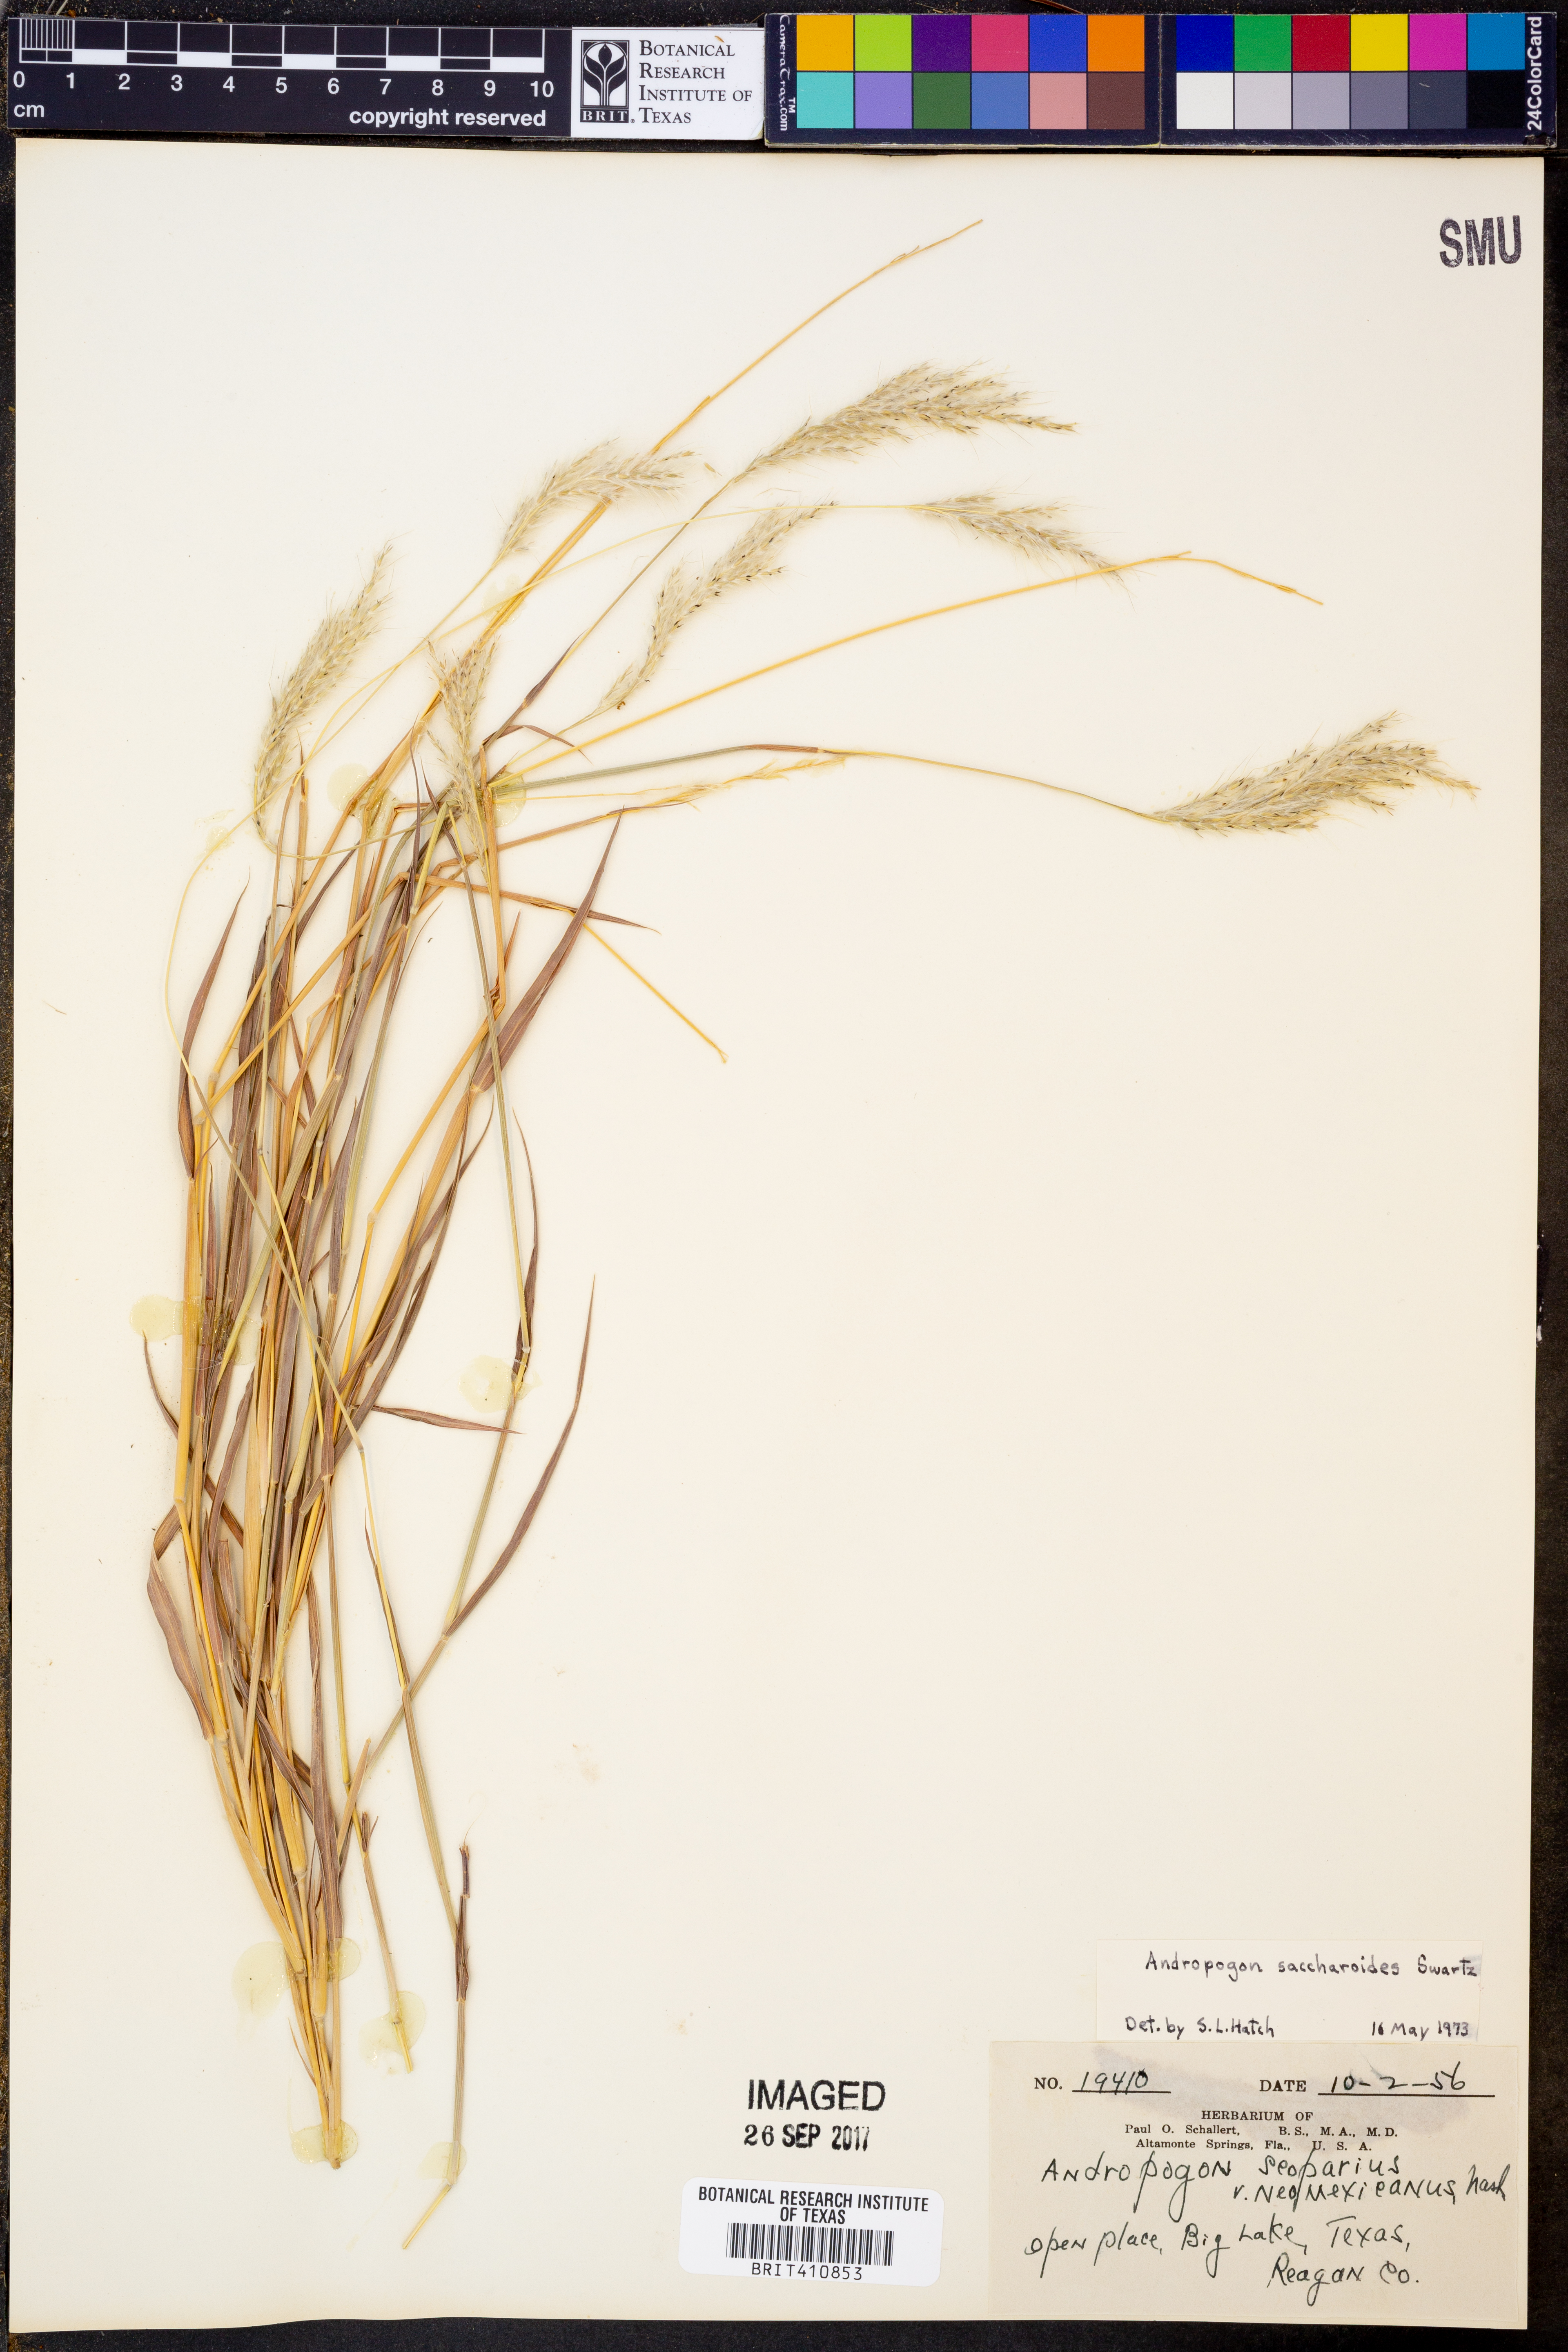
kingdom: Plantae
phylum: Tracheophyta
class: Liliopsida
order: Poales
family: Poaceae
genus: Bothriochloa
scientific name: Bothriochloa saccharoides
